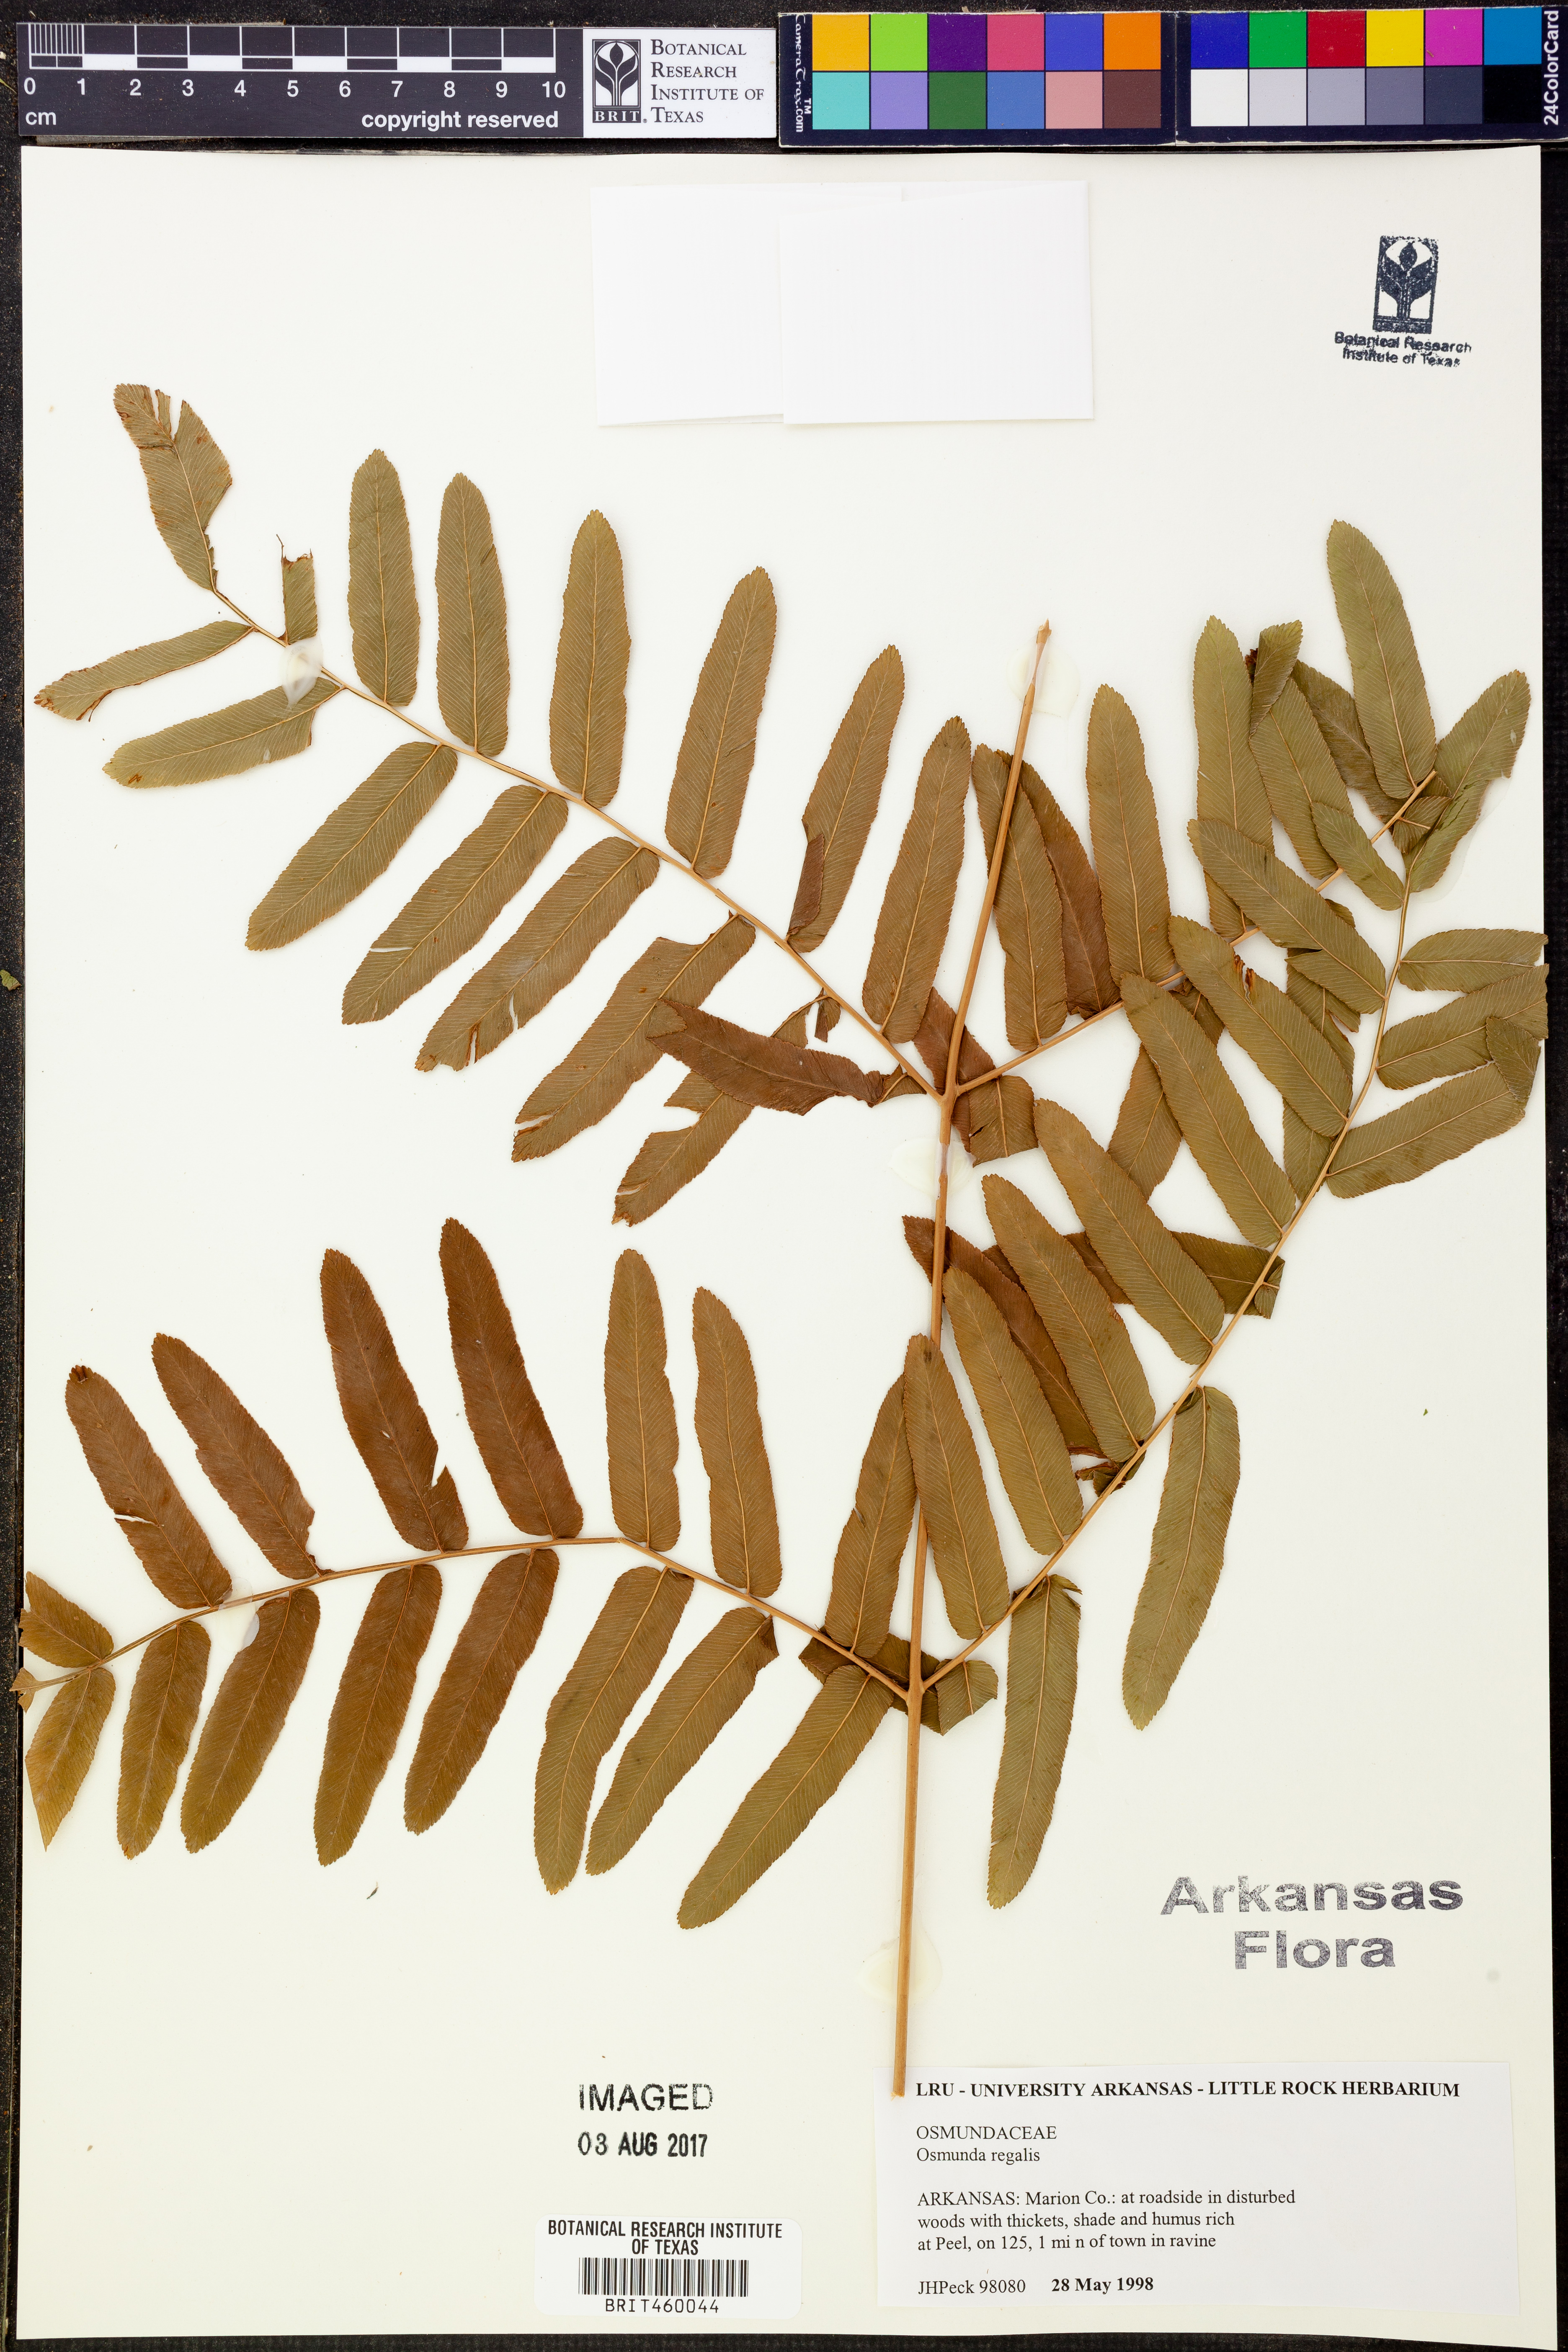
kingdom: Plantae
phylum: Tracheophyta
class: Polypodiopsida
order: Osmundales
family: Osmundaceae
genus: Osmunda
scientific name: Osmunda regalis
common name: Royal fern
